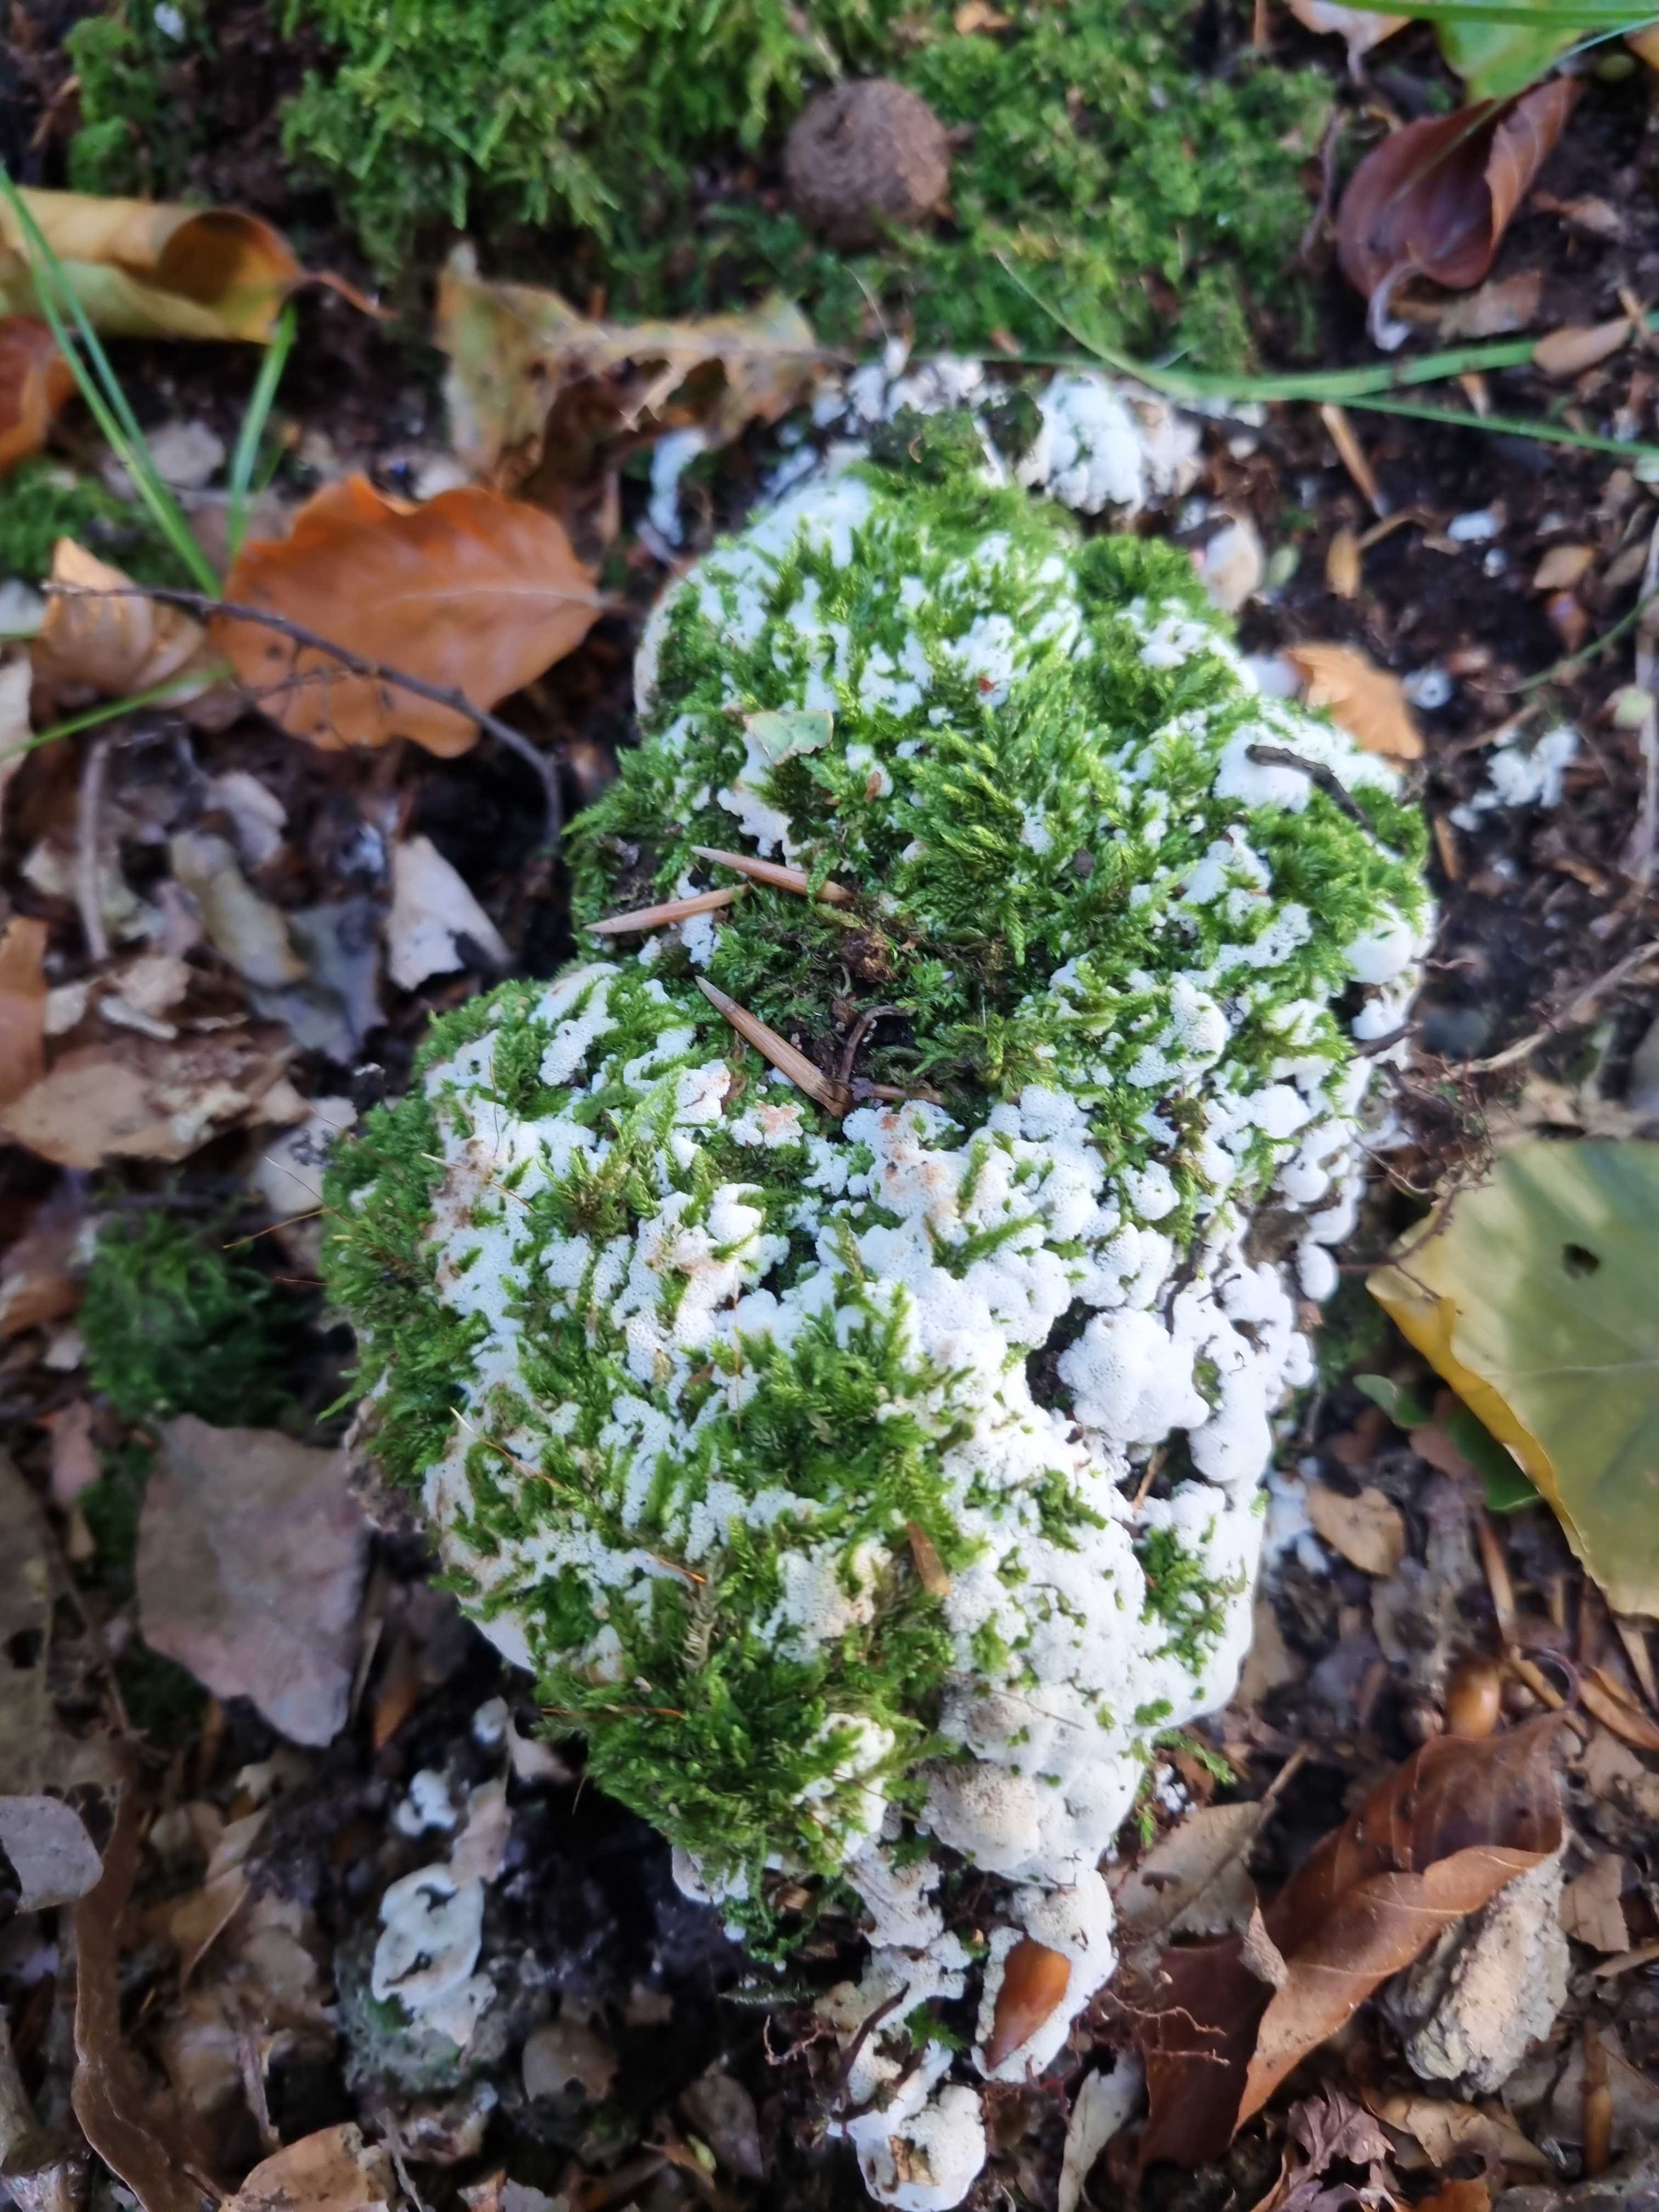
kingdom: Fungi
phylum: Basidiomycota
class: Agaricomycetes
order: Polyporales
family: Meripilaceae
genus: Rigidoporus
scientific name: Rigidoporus sanguinolentus
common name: blod-skorpeporesvamp
